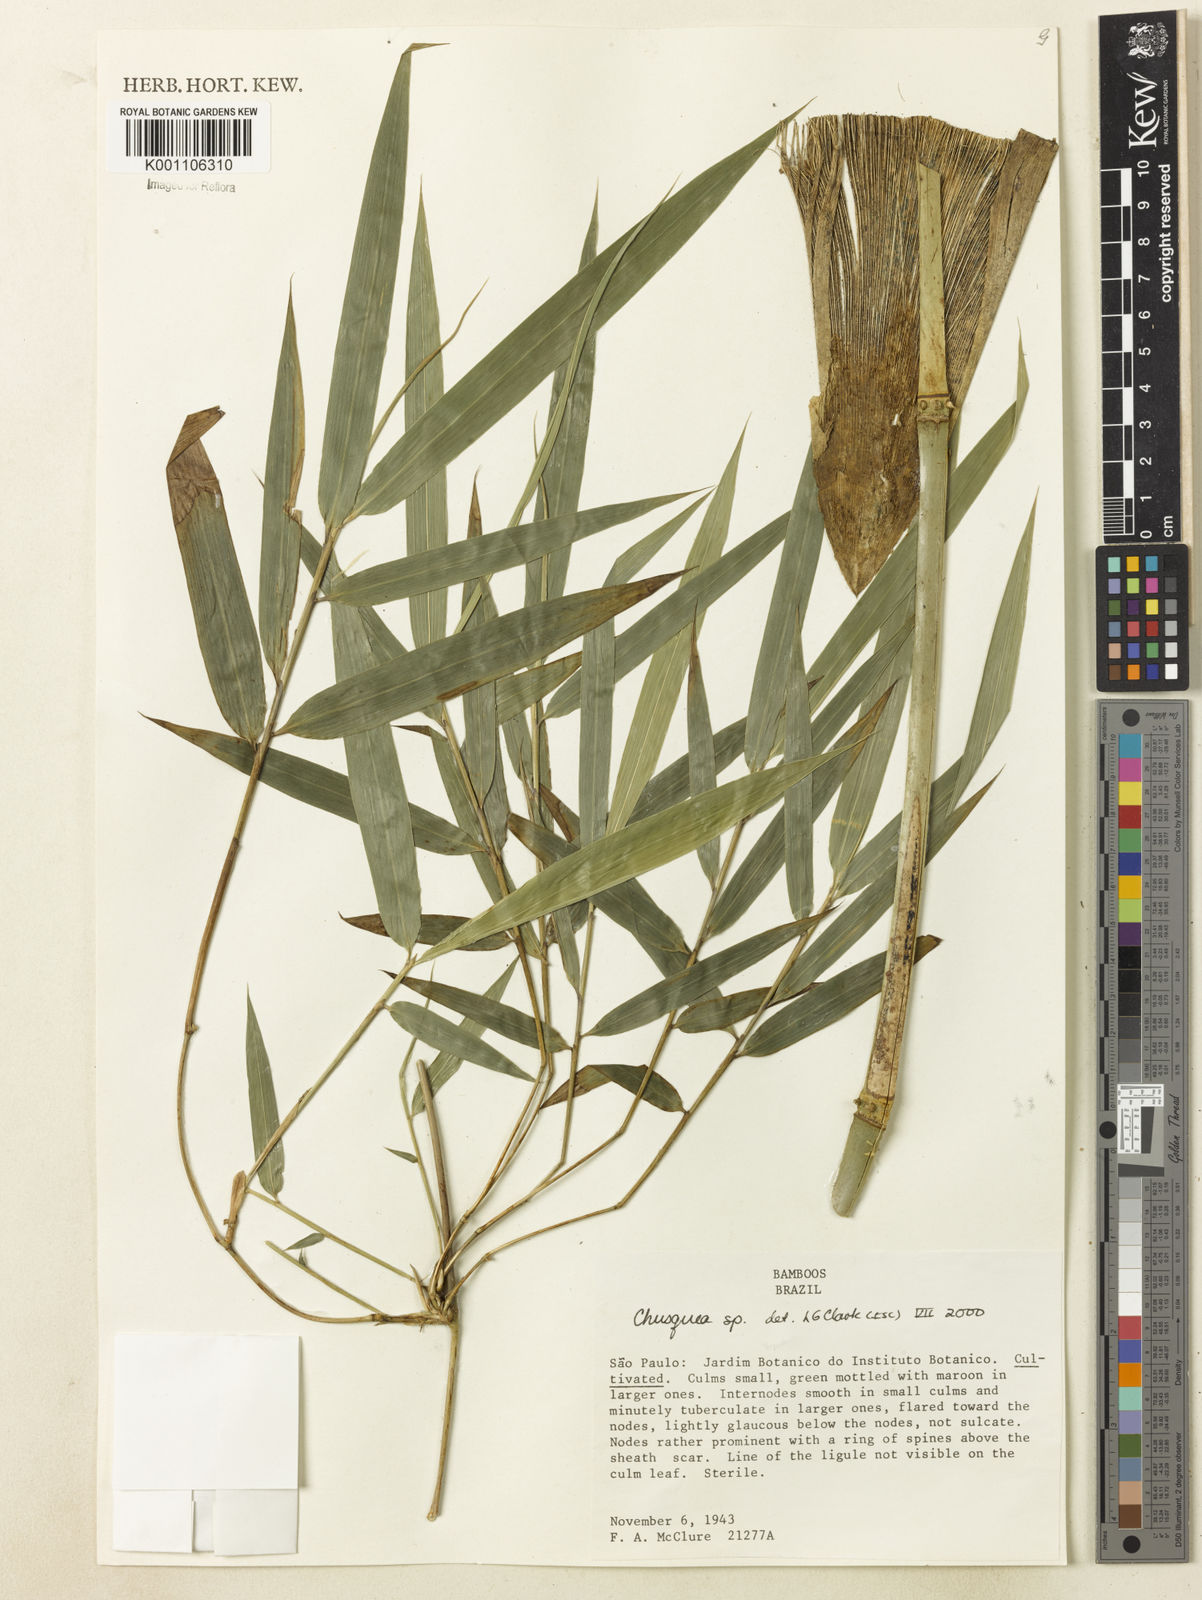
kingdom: Plantae
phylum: Tracheophyta
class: Liliopsida
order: Poales
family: Poaceae
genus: Chusquea
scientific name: Chusquea
